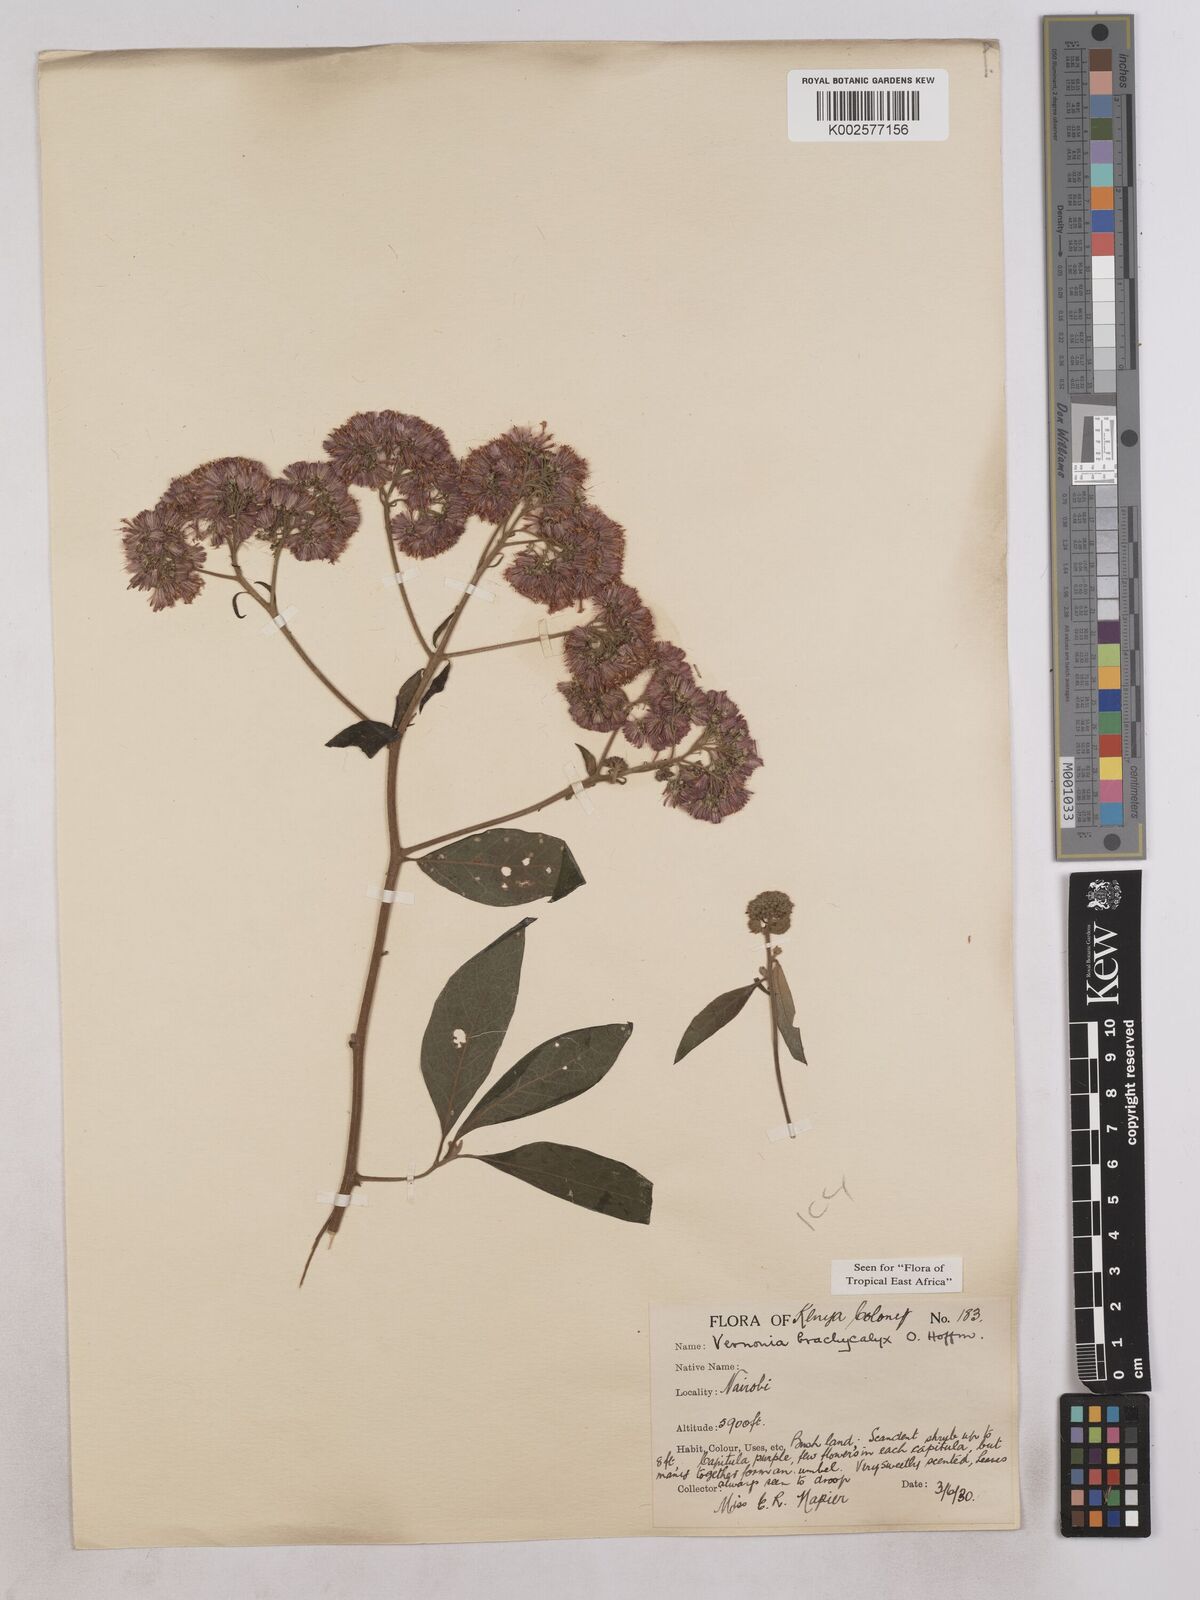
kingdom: Plantae
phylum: Tracheophyta
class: Magnoliopsida
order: Asterales
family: Asteraceae
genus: Hoffmannanthus
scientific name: Hoffmannanthus abbotianus
